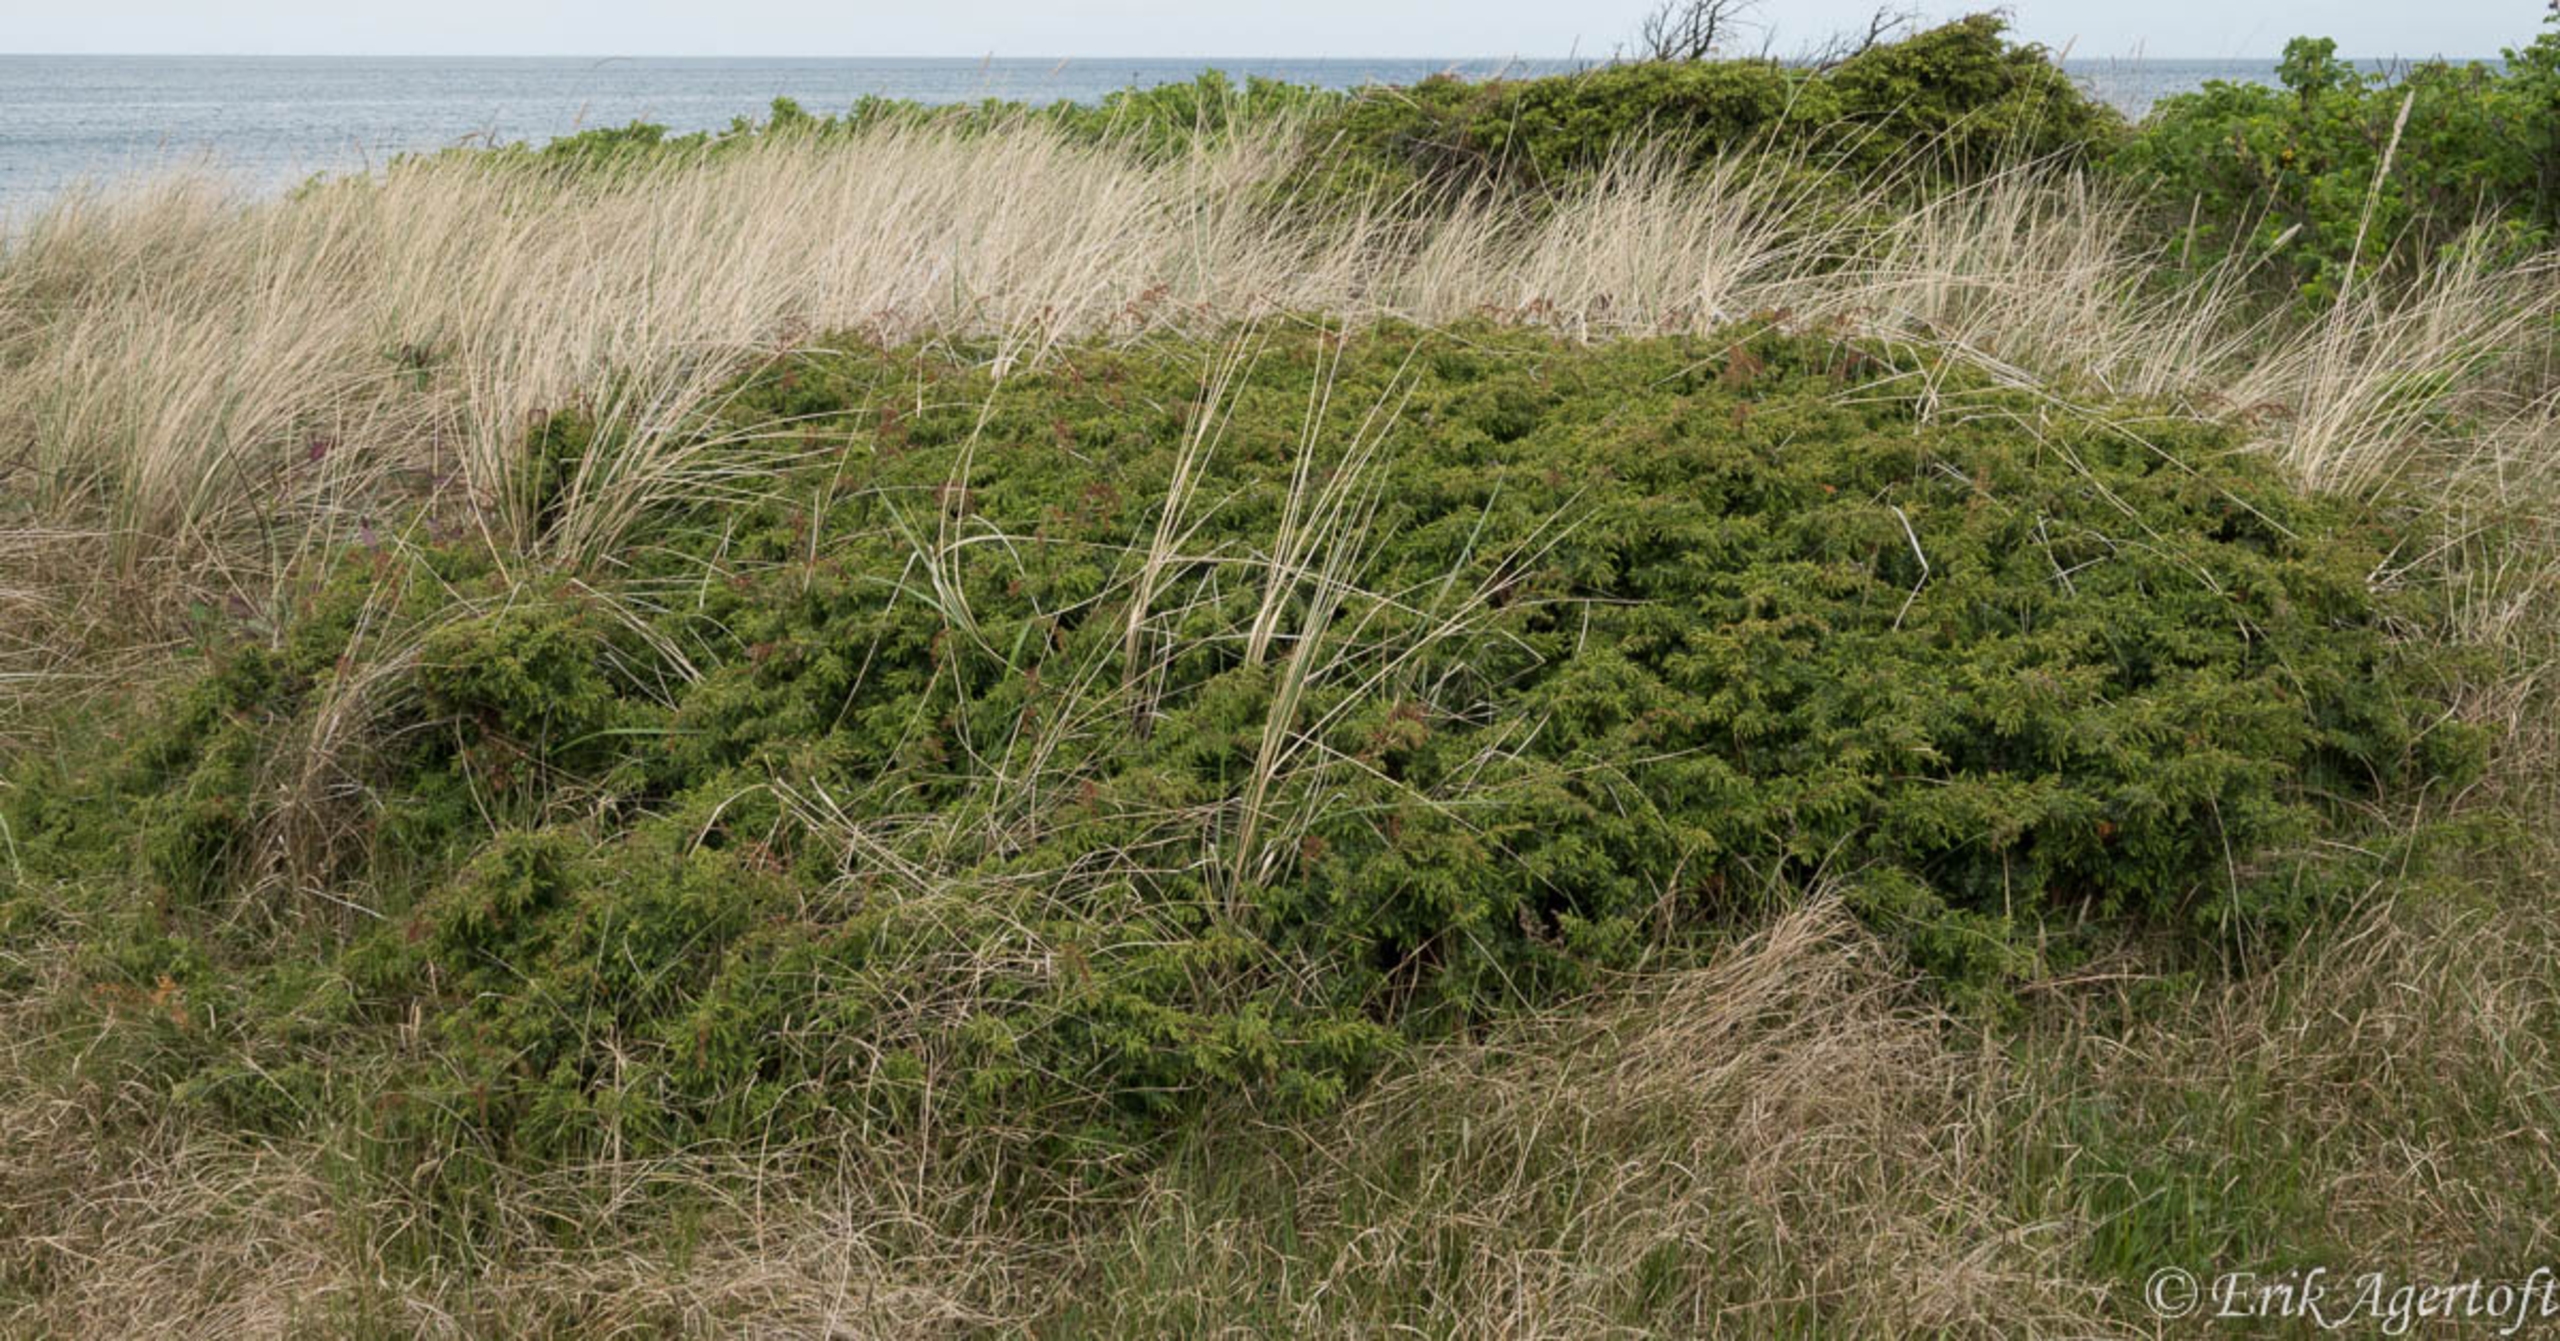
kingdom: Plantae
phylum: Tracheophyta
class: Pinopsida
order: Pinales
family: Cupressaceae
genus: Juniperus
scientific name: Juniperus communis
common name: Almindelig ene
